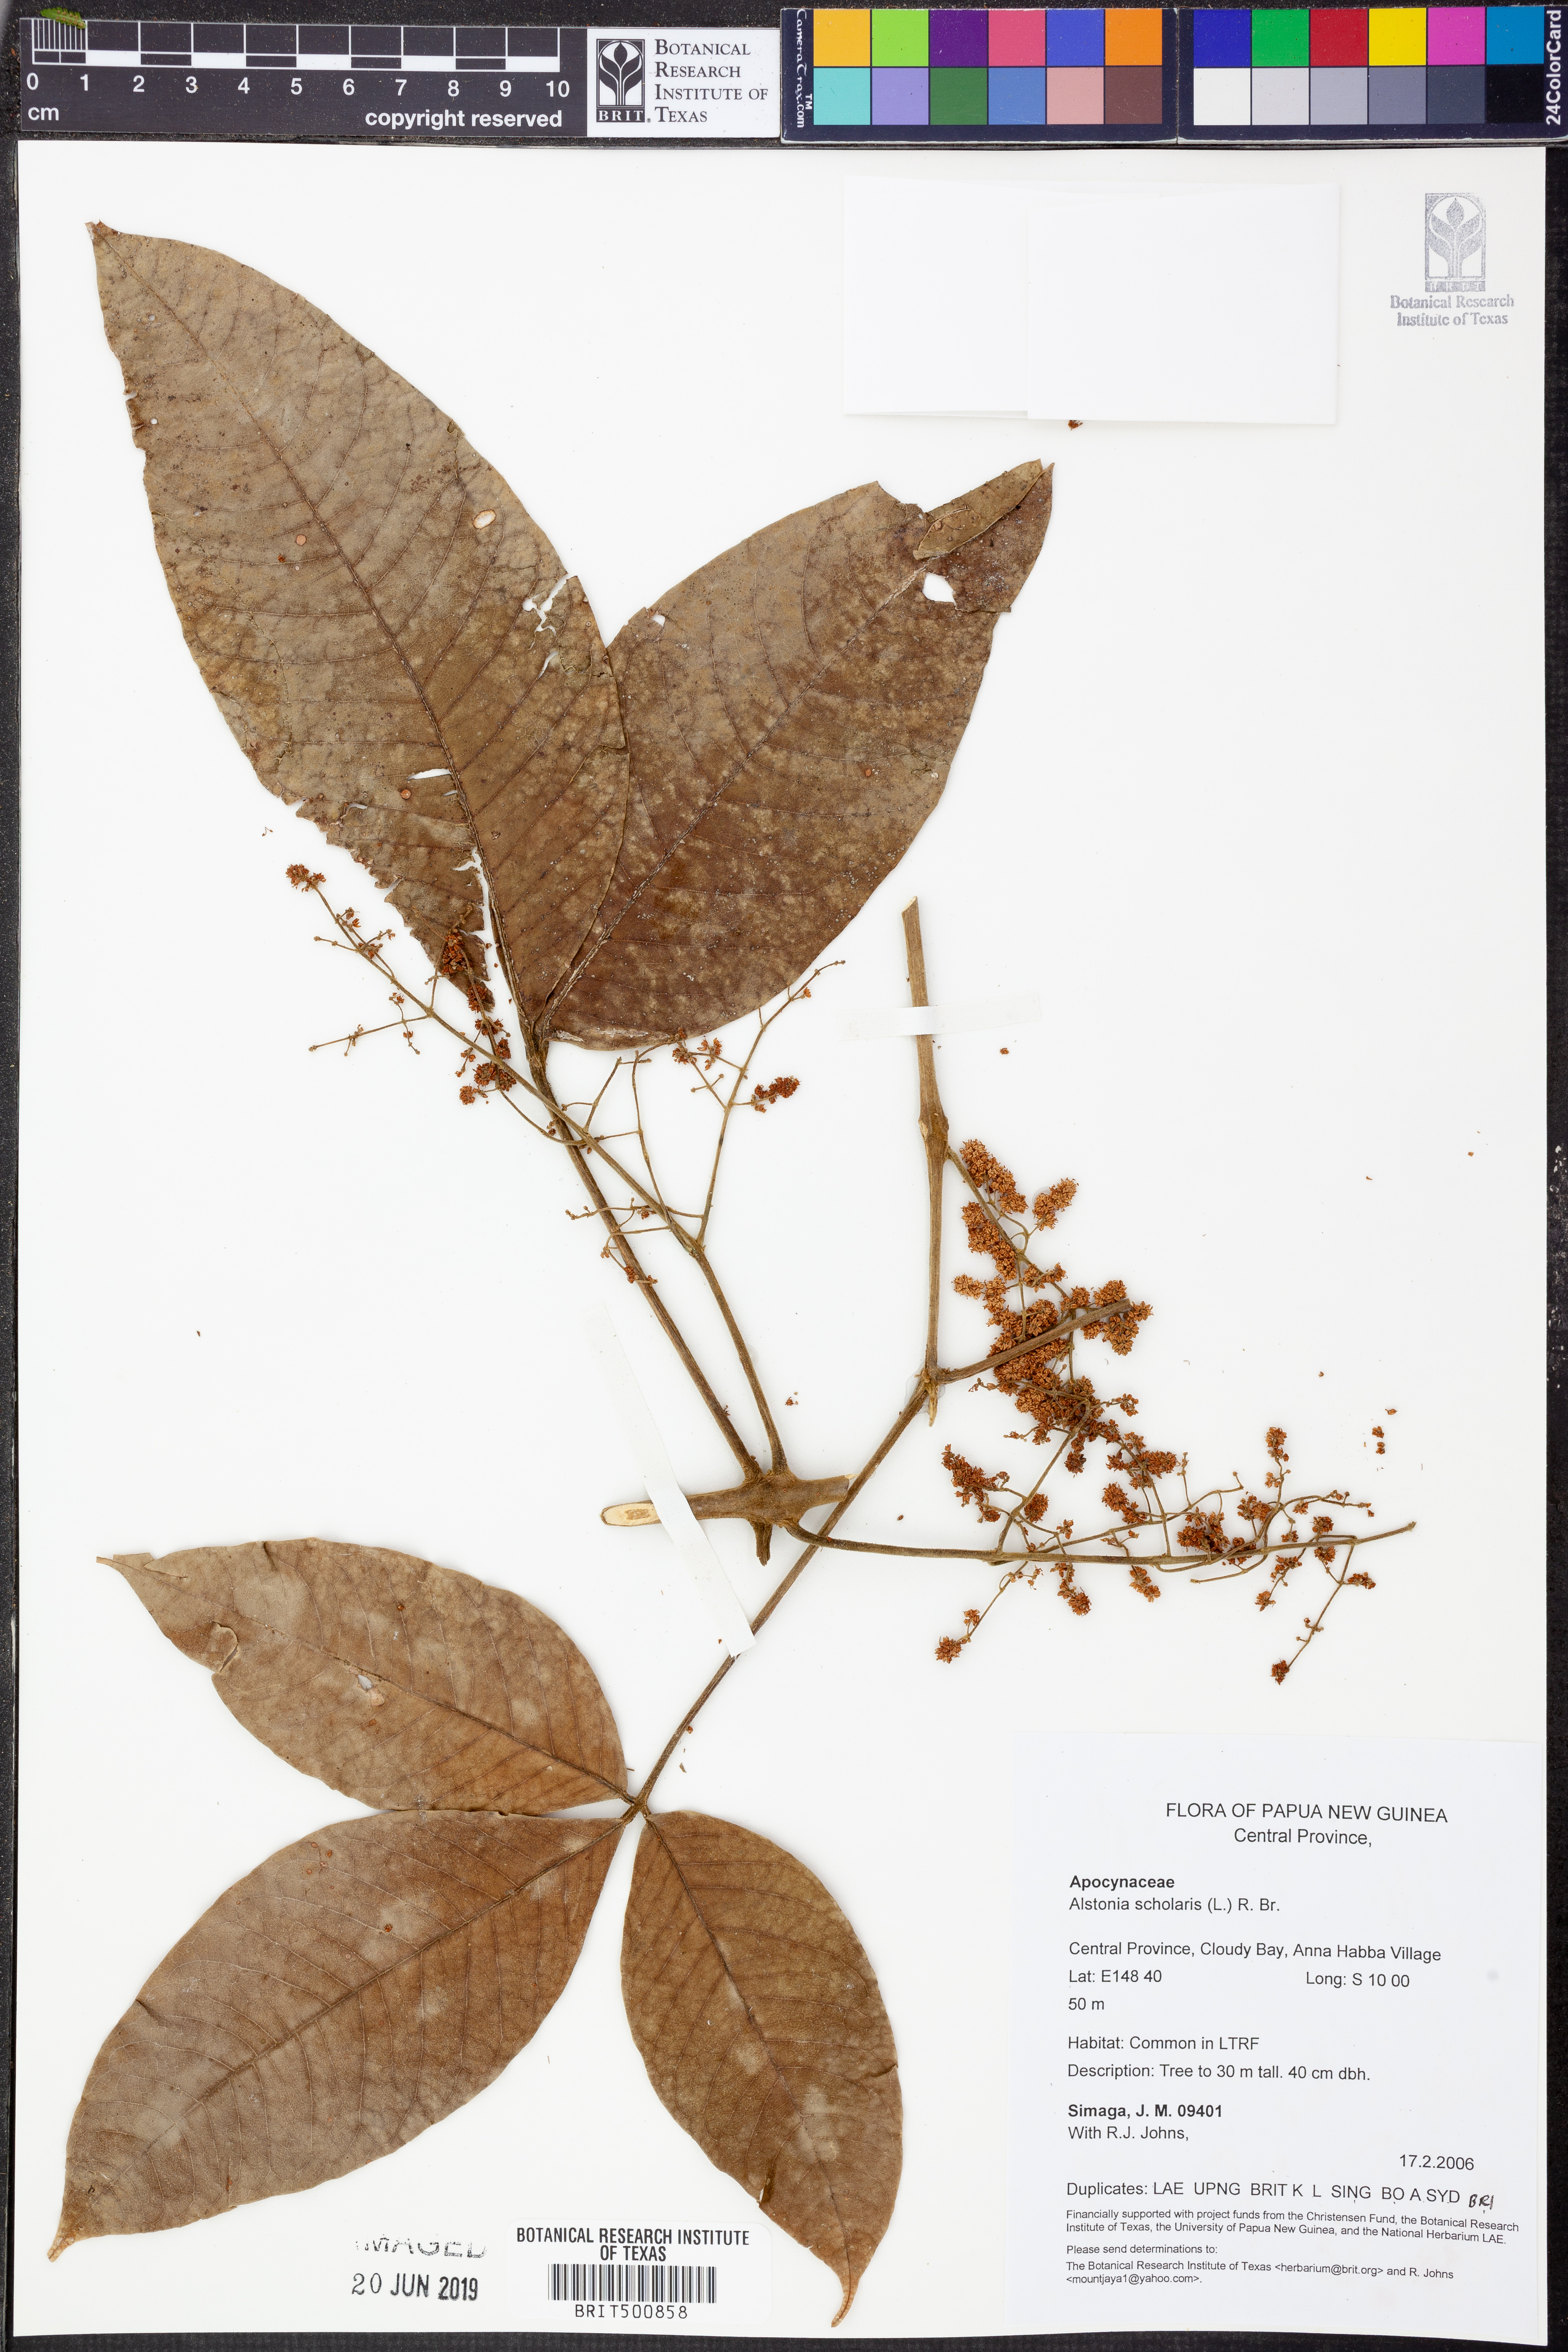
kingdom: Plantae
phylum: Tracheophyta
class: Magnoliopsida
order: Gentianales
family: Apocynaceae
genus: Alstonia
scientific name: Alstonia scholaris
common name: White cheesewood
